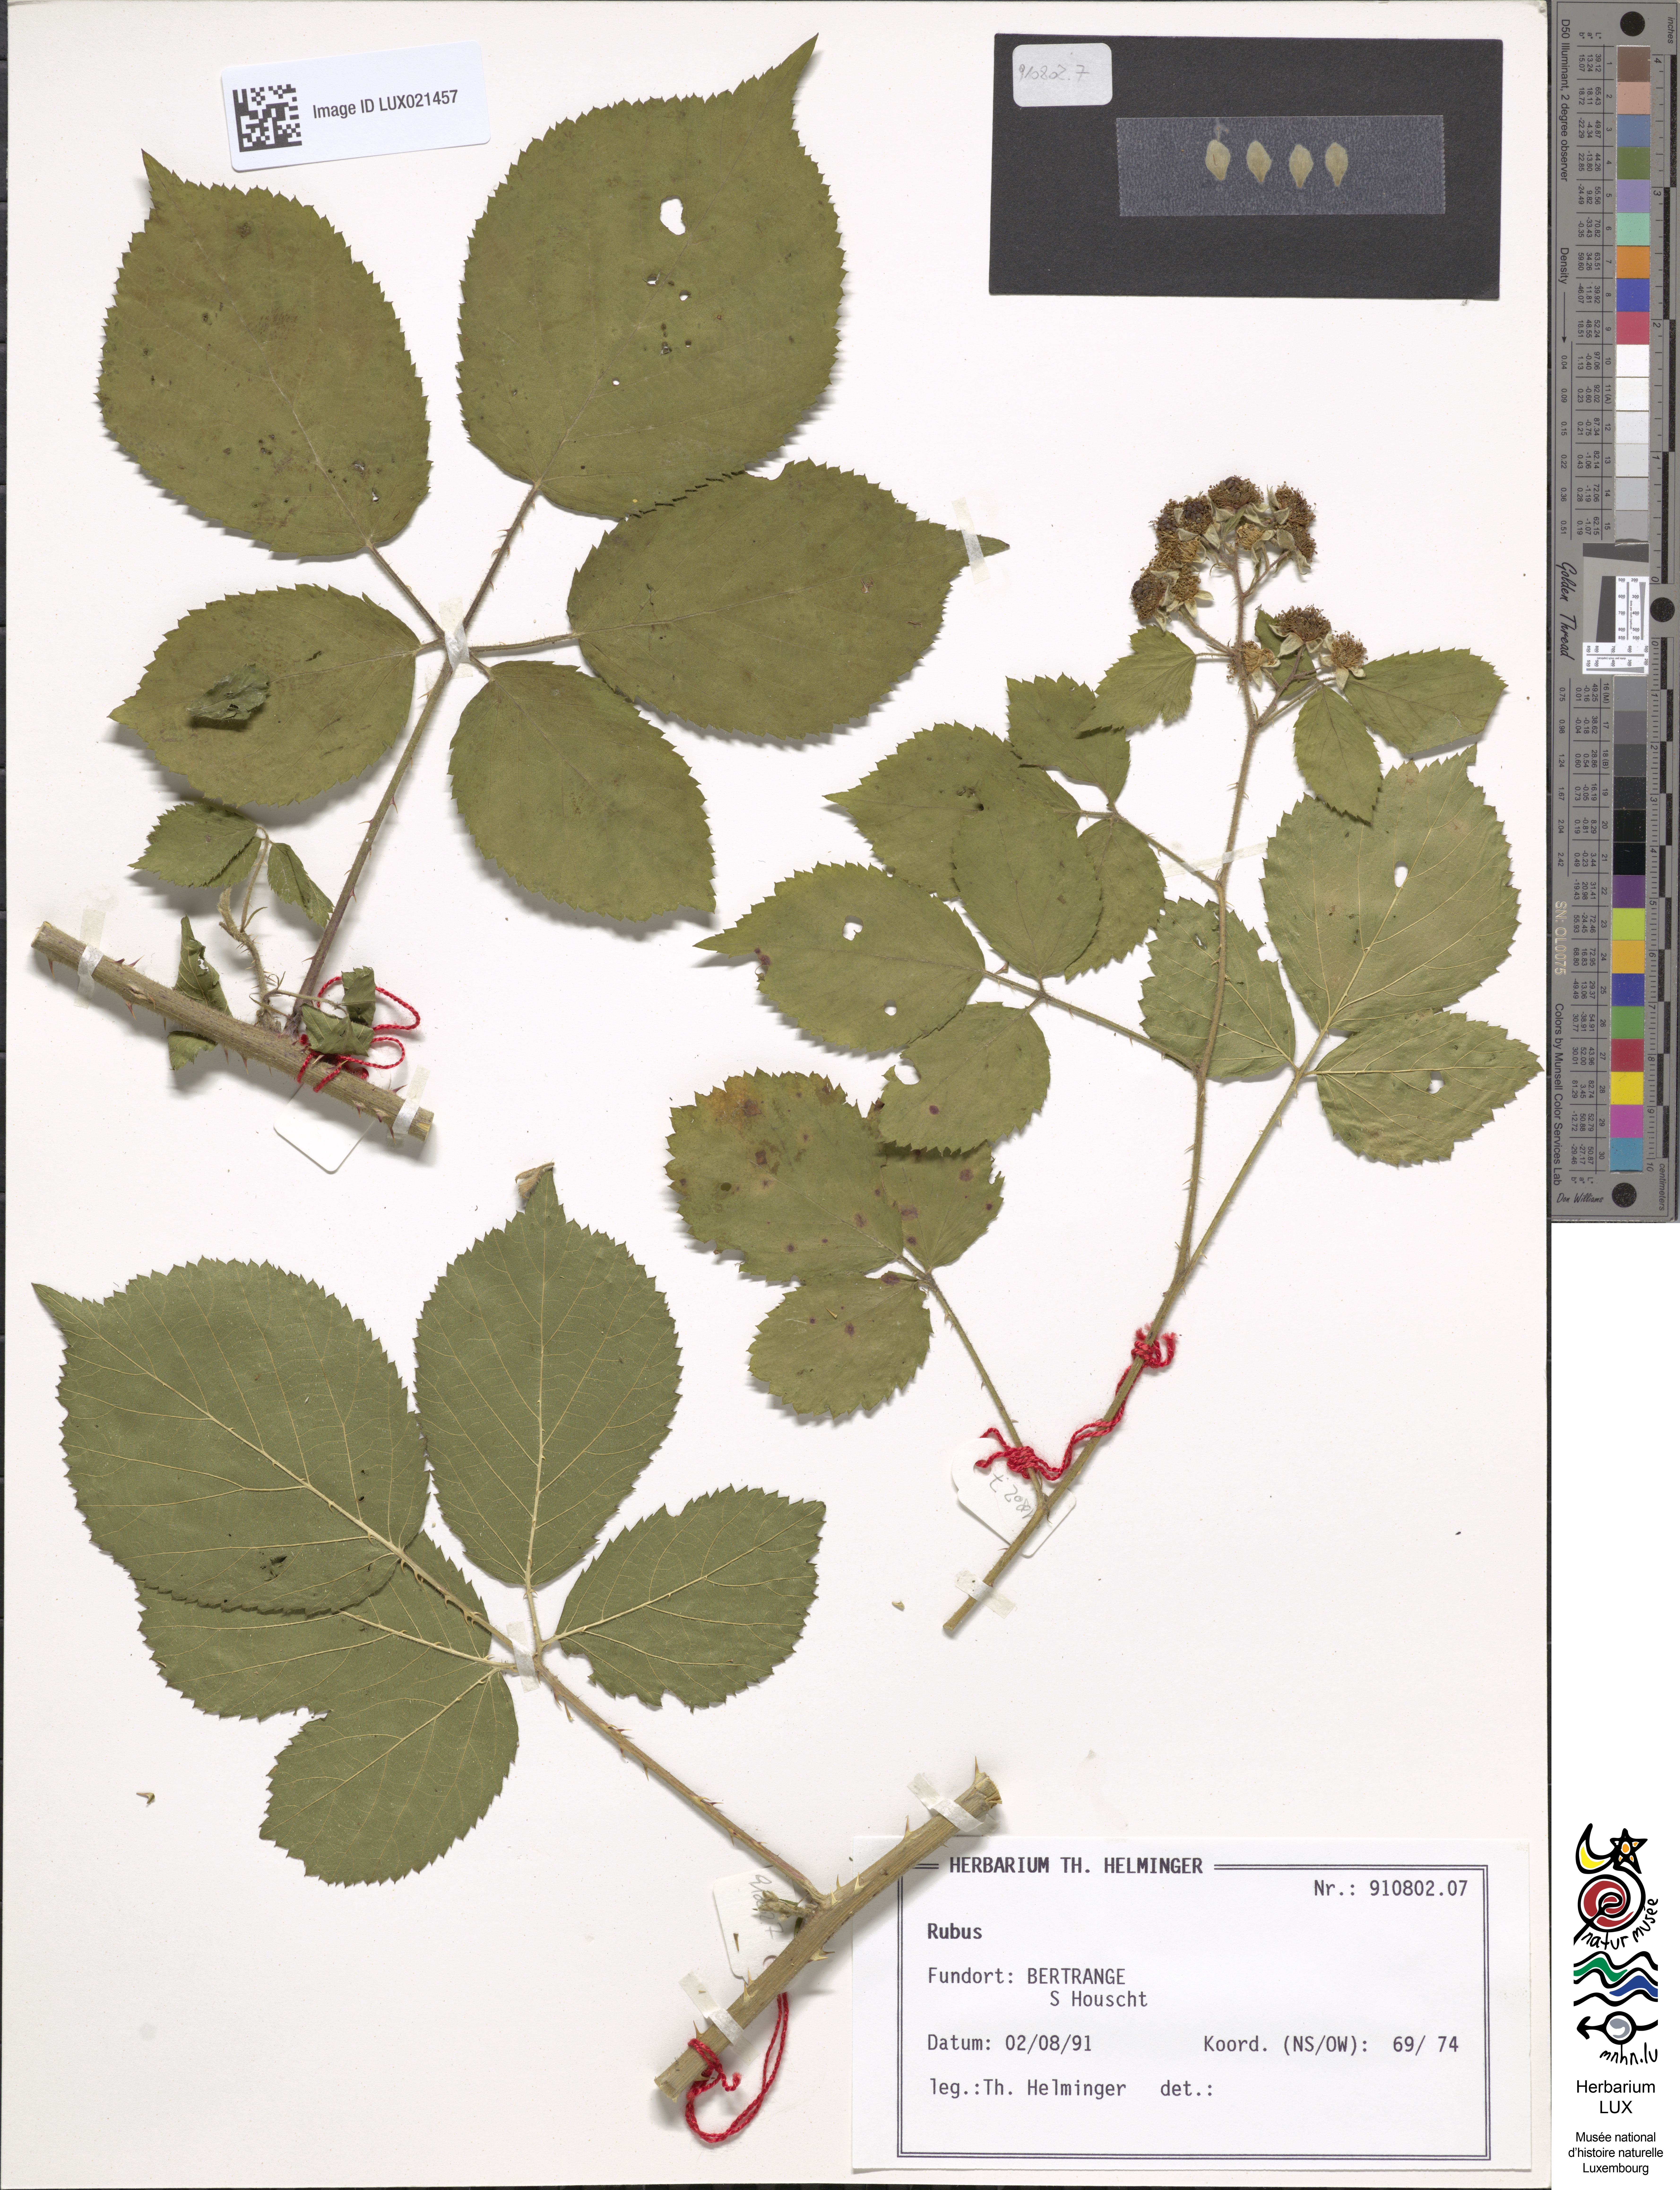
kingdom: Plantae
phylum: Tracheophyta
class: Magnoliopsida
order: Rosales
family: Rosaceae
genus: Rubus
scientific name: Rubus
